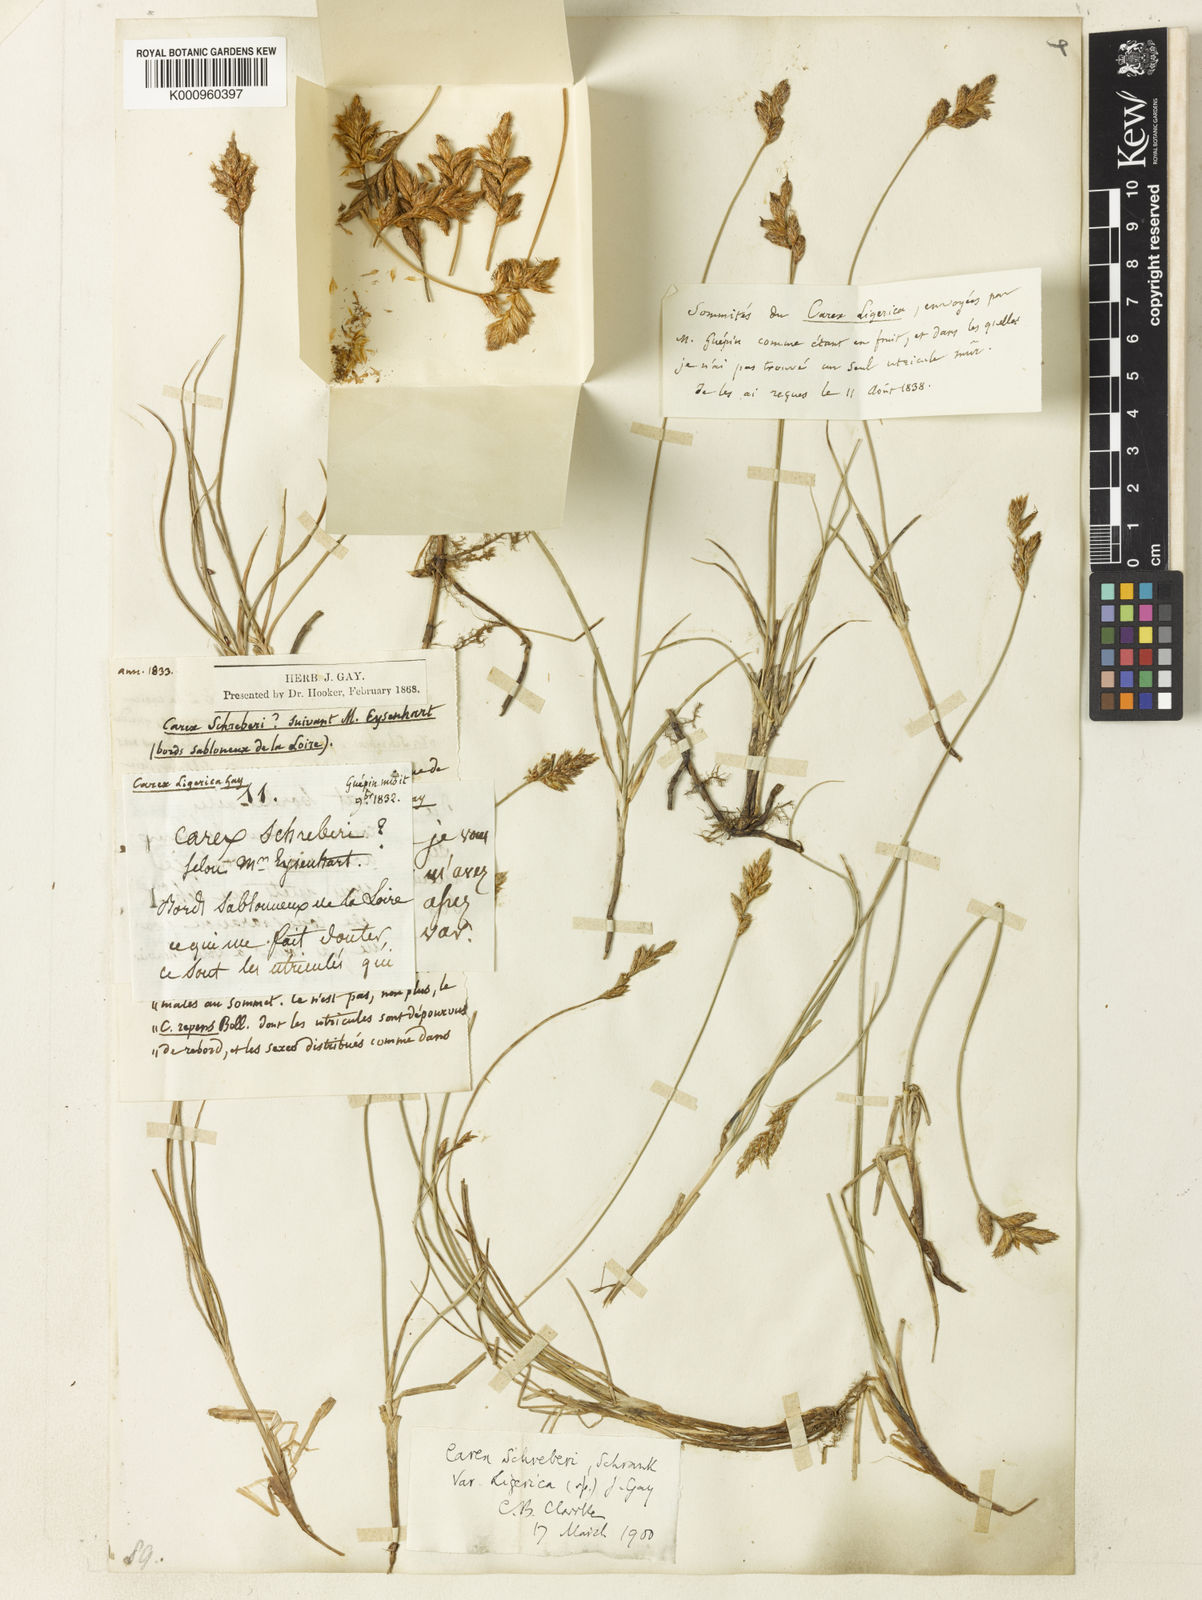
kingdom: Plantae
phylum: Tracheophyta
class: Liliopsida
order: Poales
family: Cyperaceae
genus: Carex
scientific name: Carex colchica
